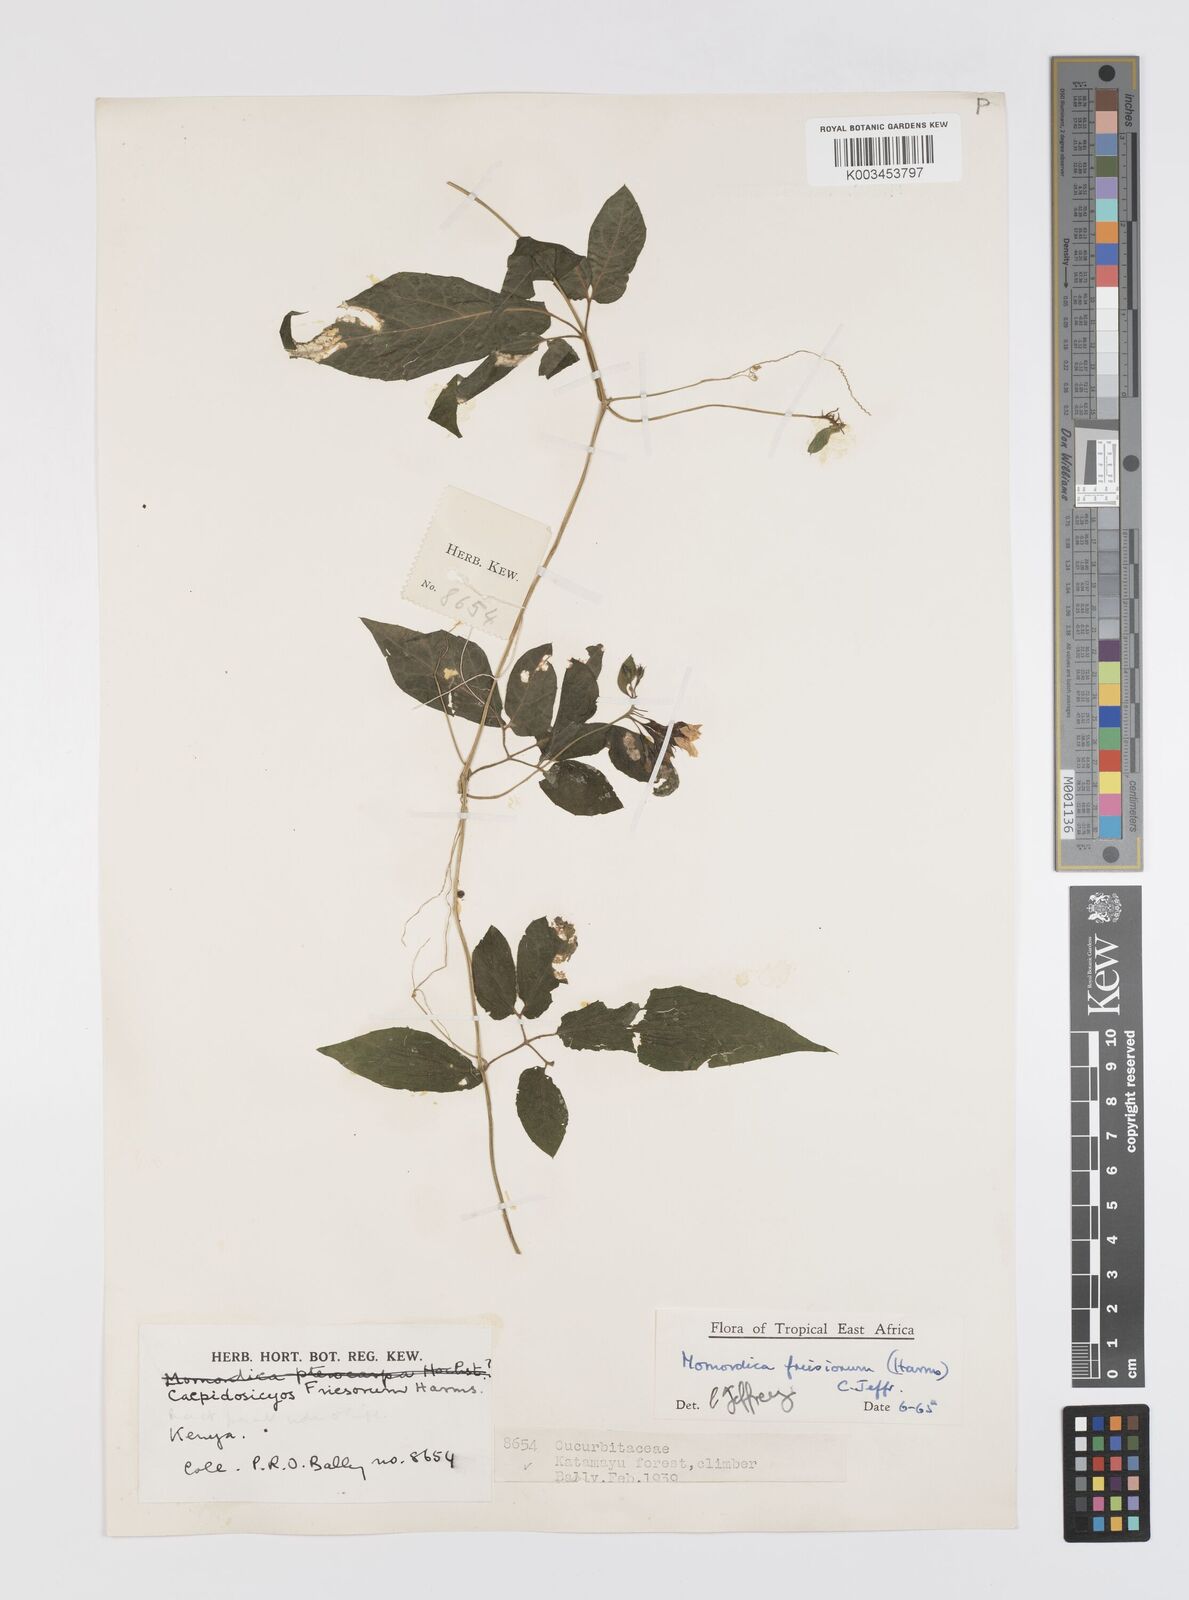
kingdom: Plantae
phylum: Tracheophyta
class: Magnoliopsida
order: Cucurbitales
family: Cucurbitaceae
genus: Momordica
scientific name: Momordica friesiorum
